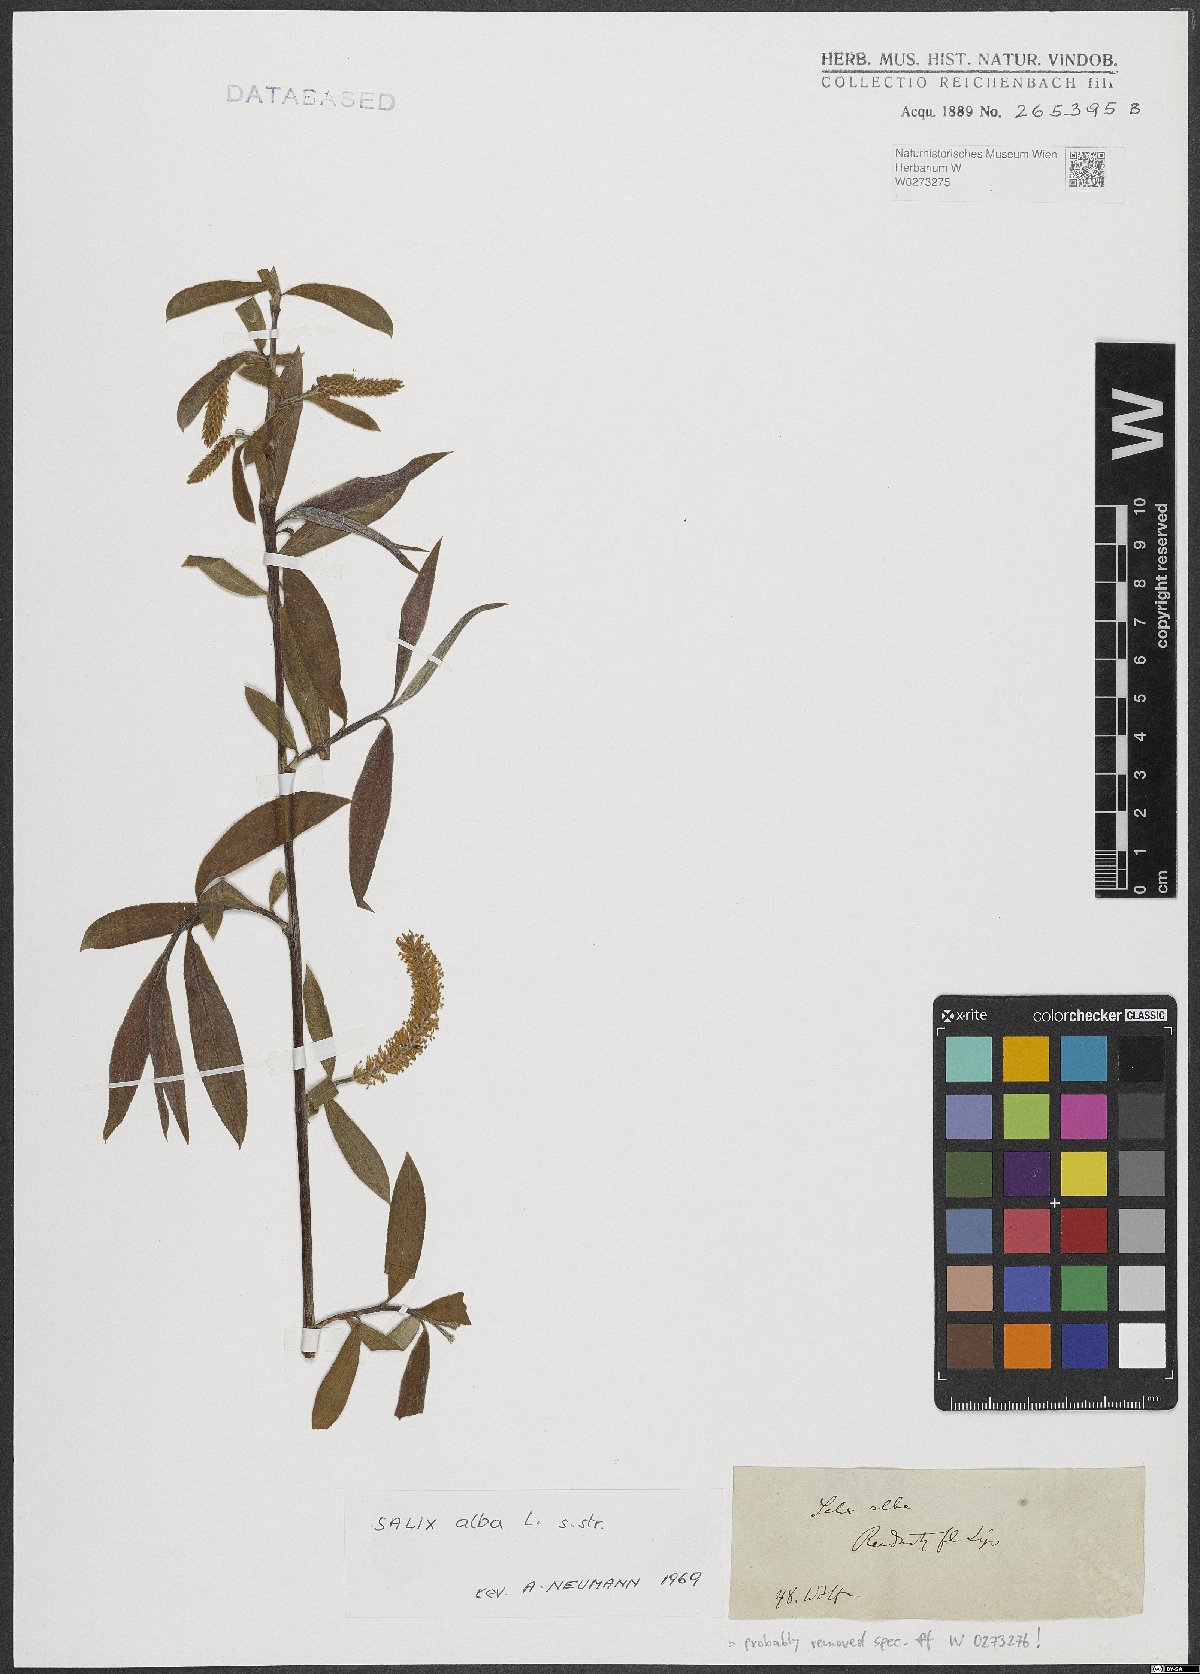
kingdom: Plantae
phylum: Tracheophyta
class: Magnoliopsida
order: Malpighiales
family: Salicaceae
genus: Salix
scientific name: Salix alba
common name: White willow
